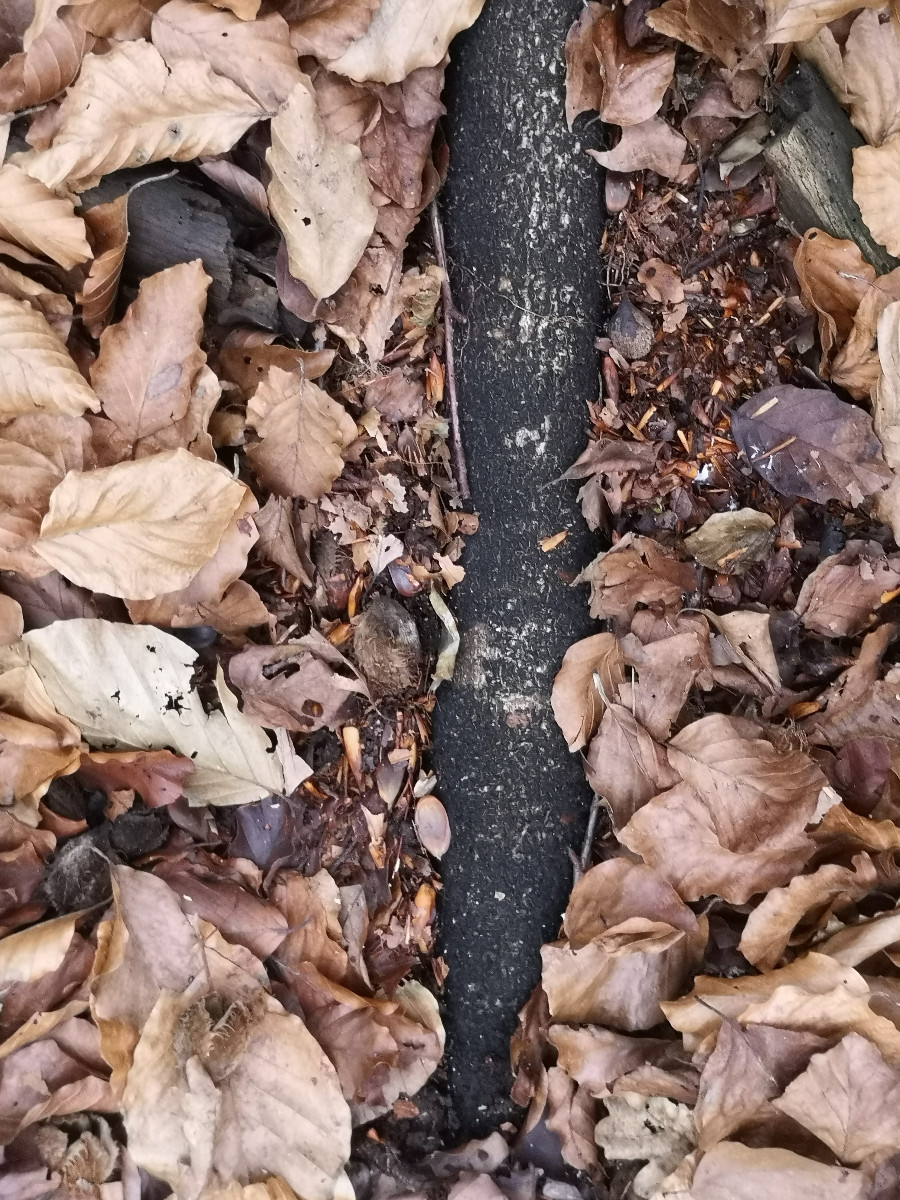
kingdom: Fungi
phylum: Ascomycota
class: Sordariomycetes
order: Xylariales
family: Melogrammataceae
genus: Melogramma
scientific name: Melogramma spiniferum
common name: bøgefod-kulhals
